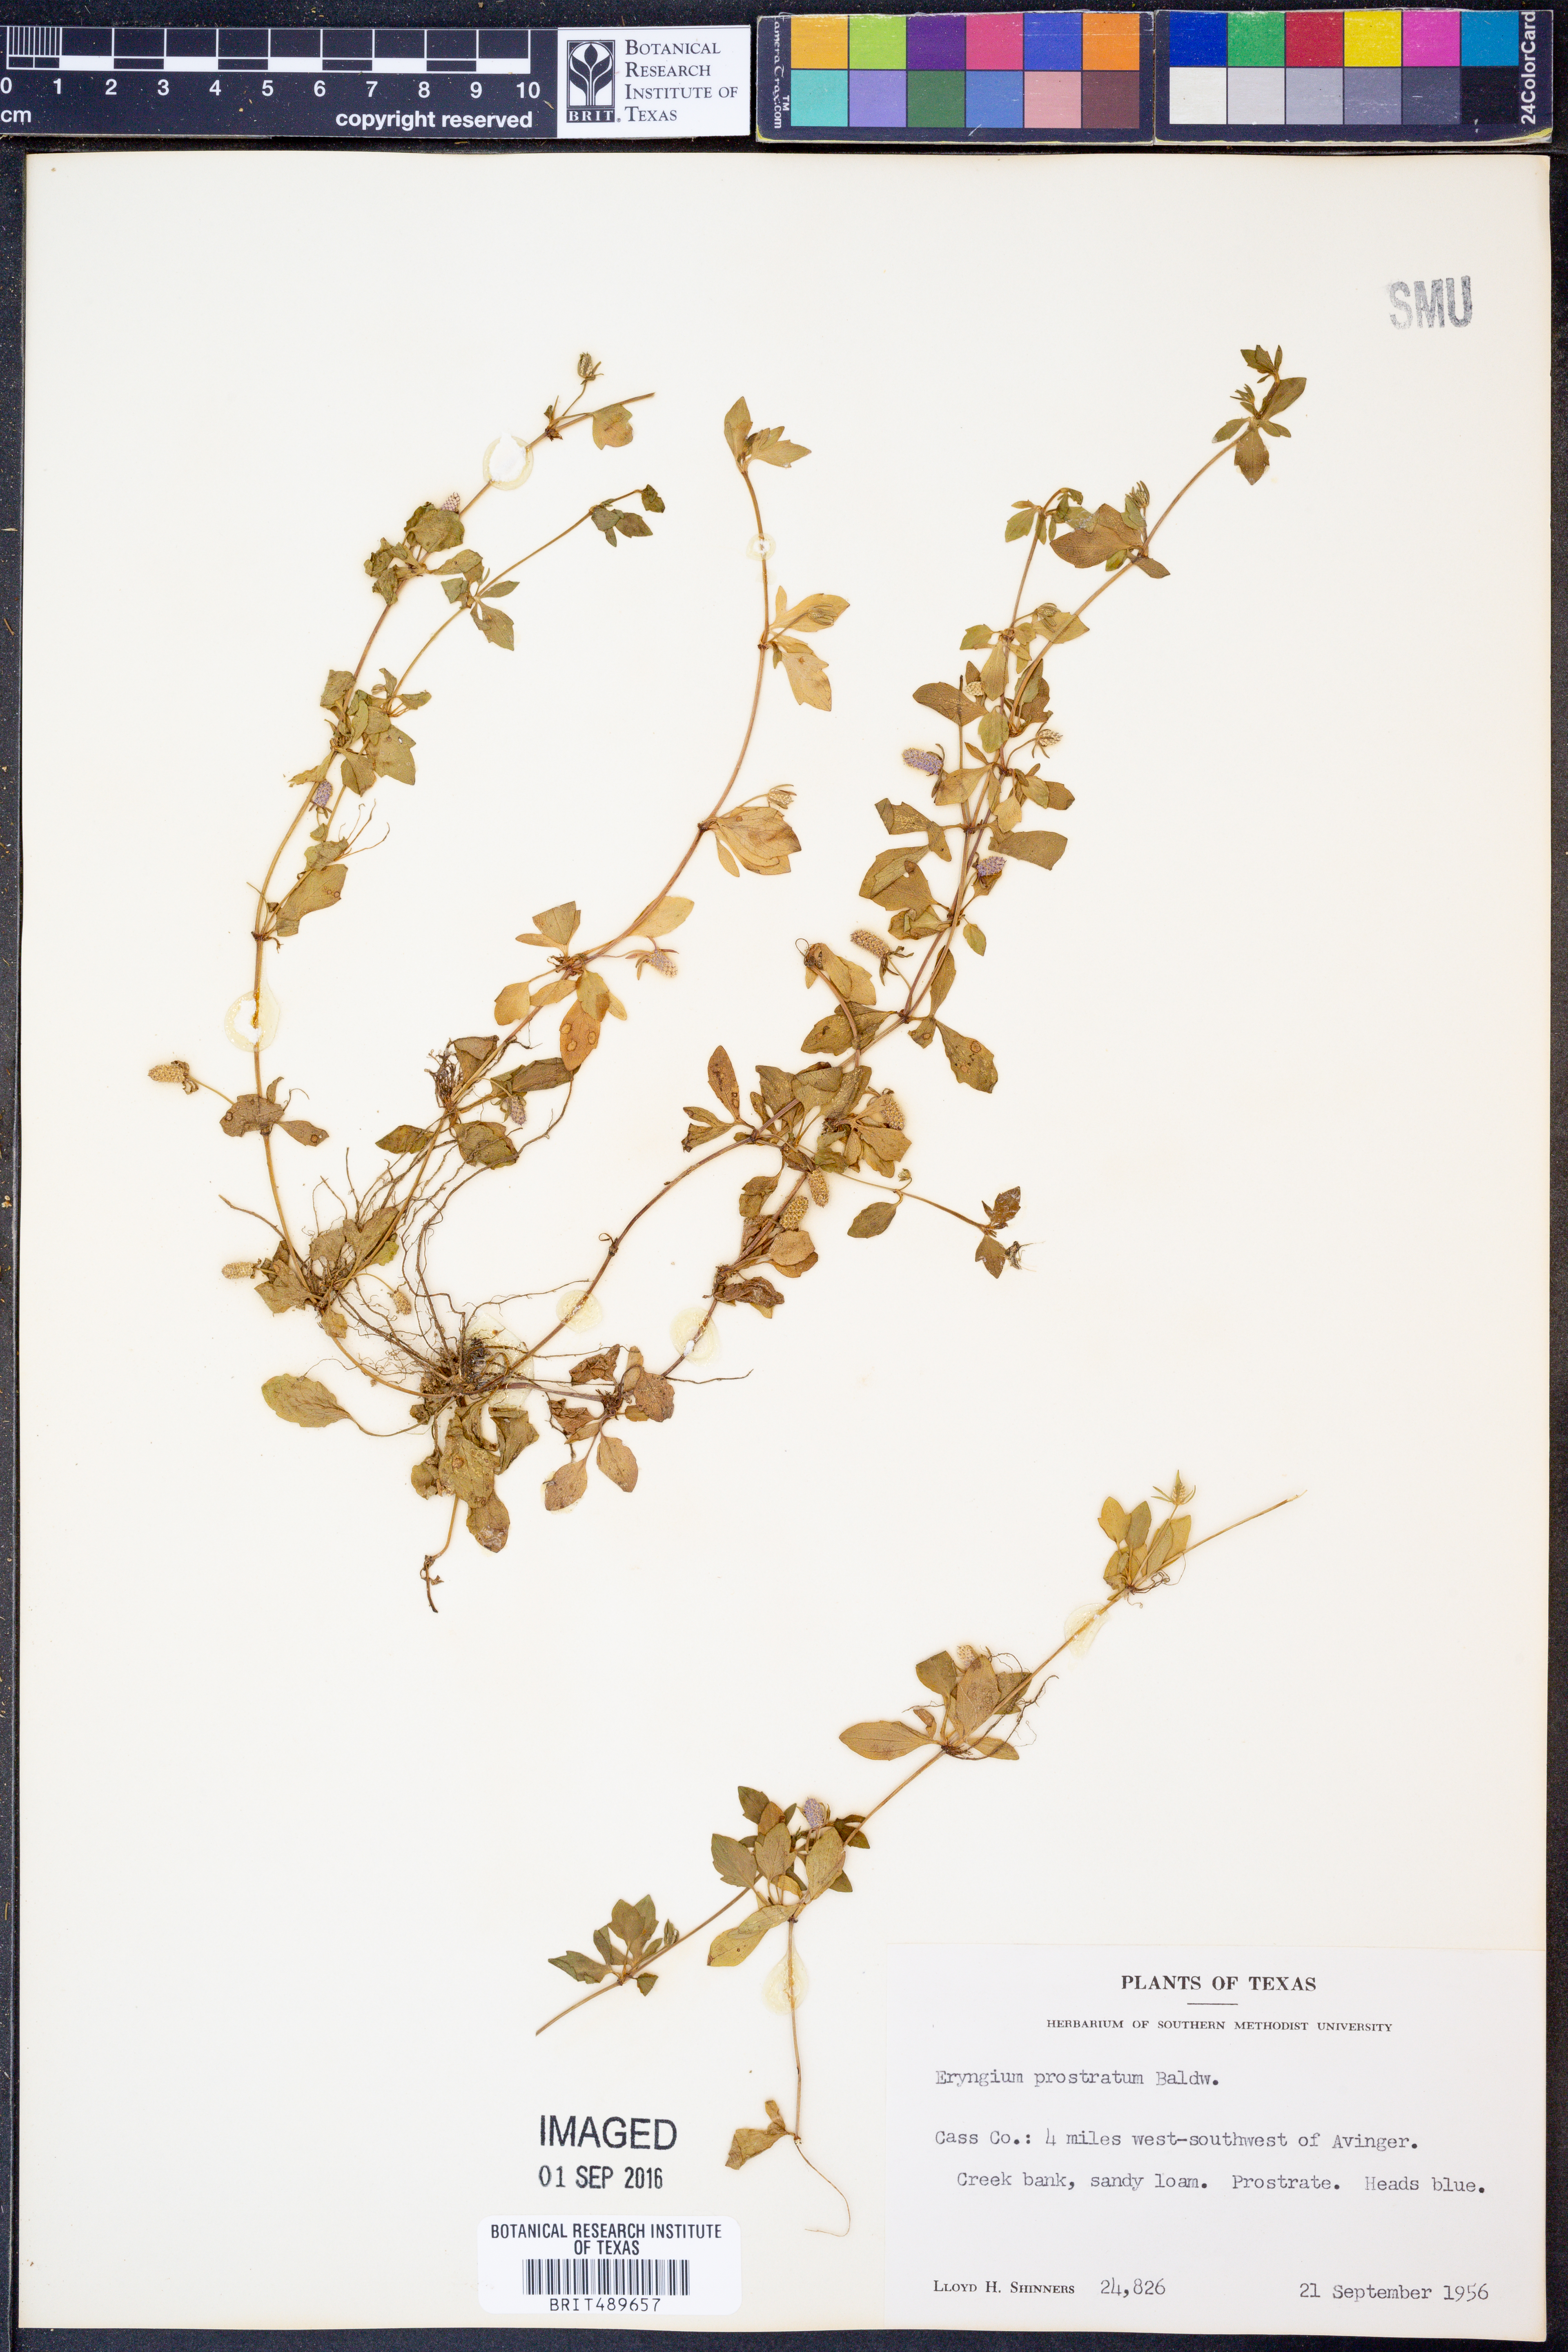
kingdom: Plantae
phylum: Tracheophyta
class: Magnoliopsida
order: Apiales
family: Apiaceae
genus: Eryngium
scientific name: Eryngium prostratum
